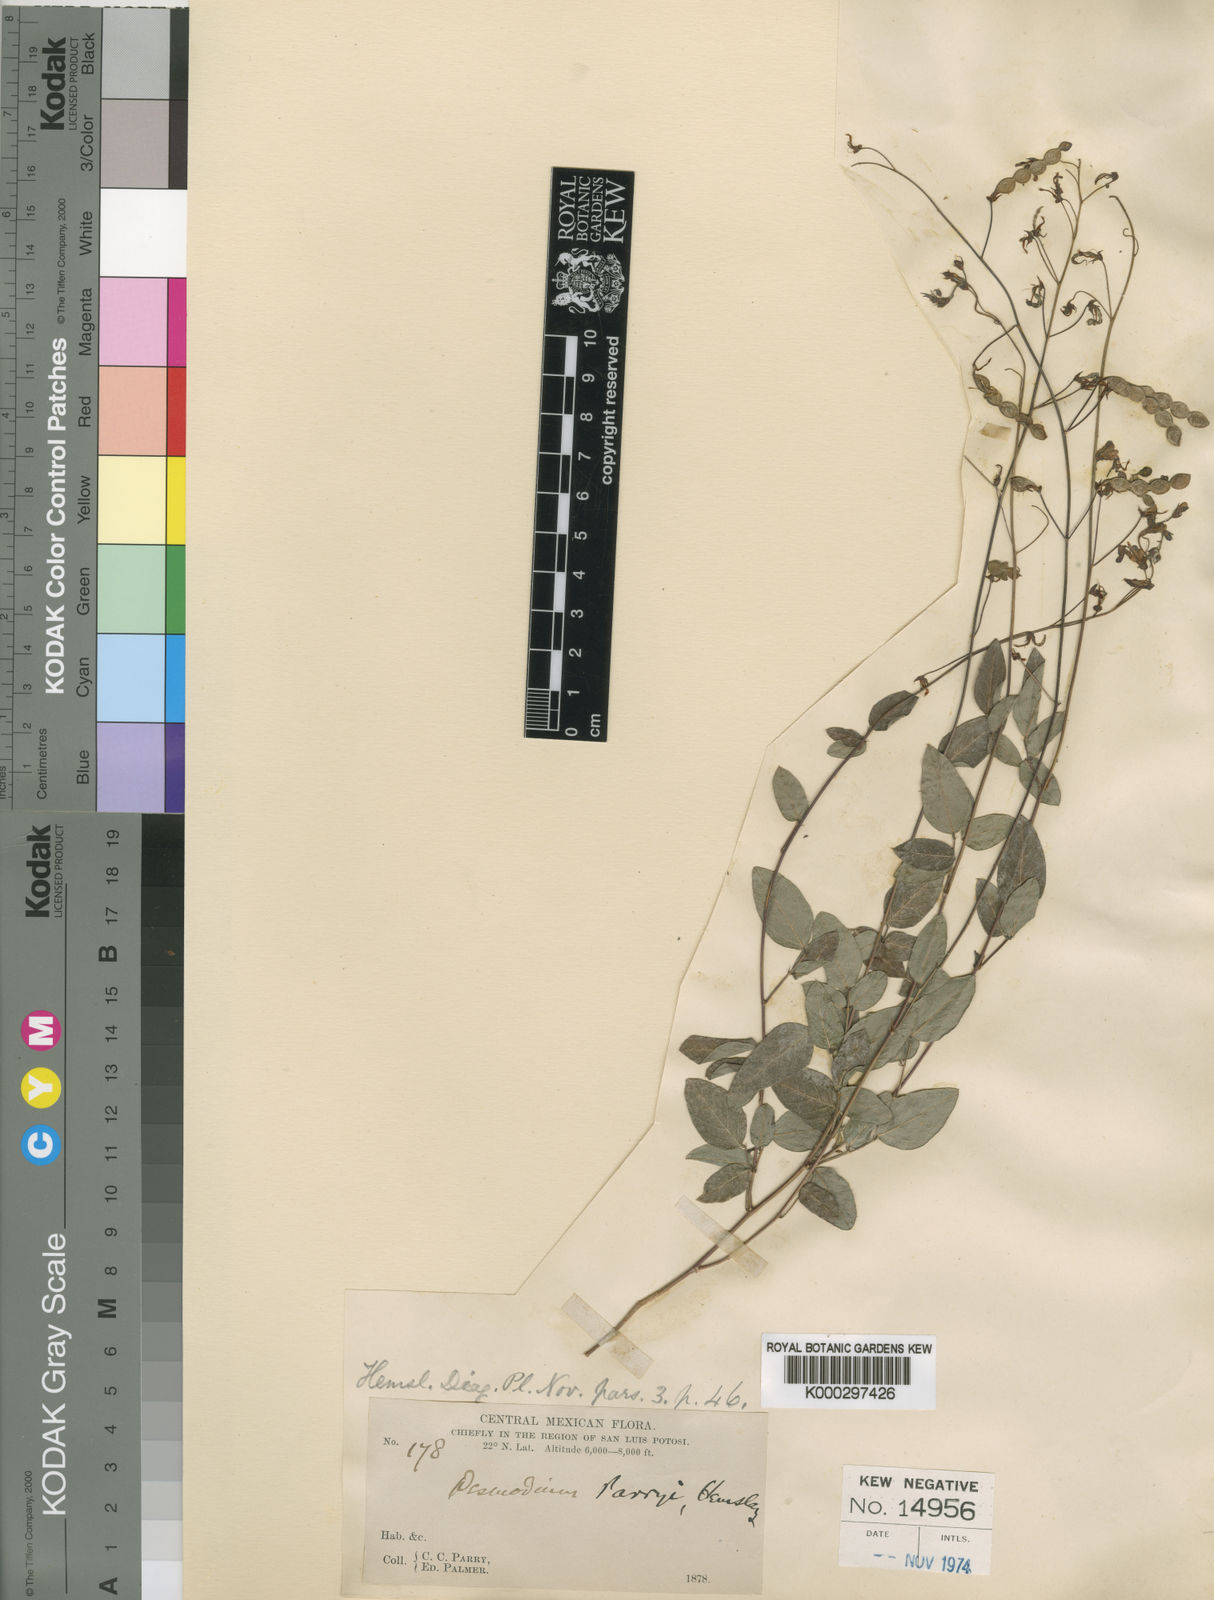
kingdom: Plantae
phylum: Tracheophyta
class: Magnoliopsida
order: Fabales
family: Fabaceae
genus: Desmodium
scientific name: Desmodium grahamii
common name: Graham's tick-trefoil
